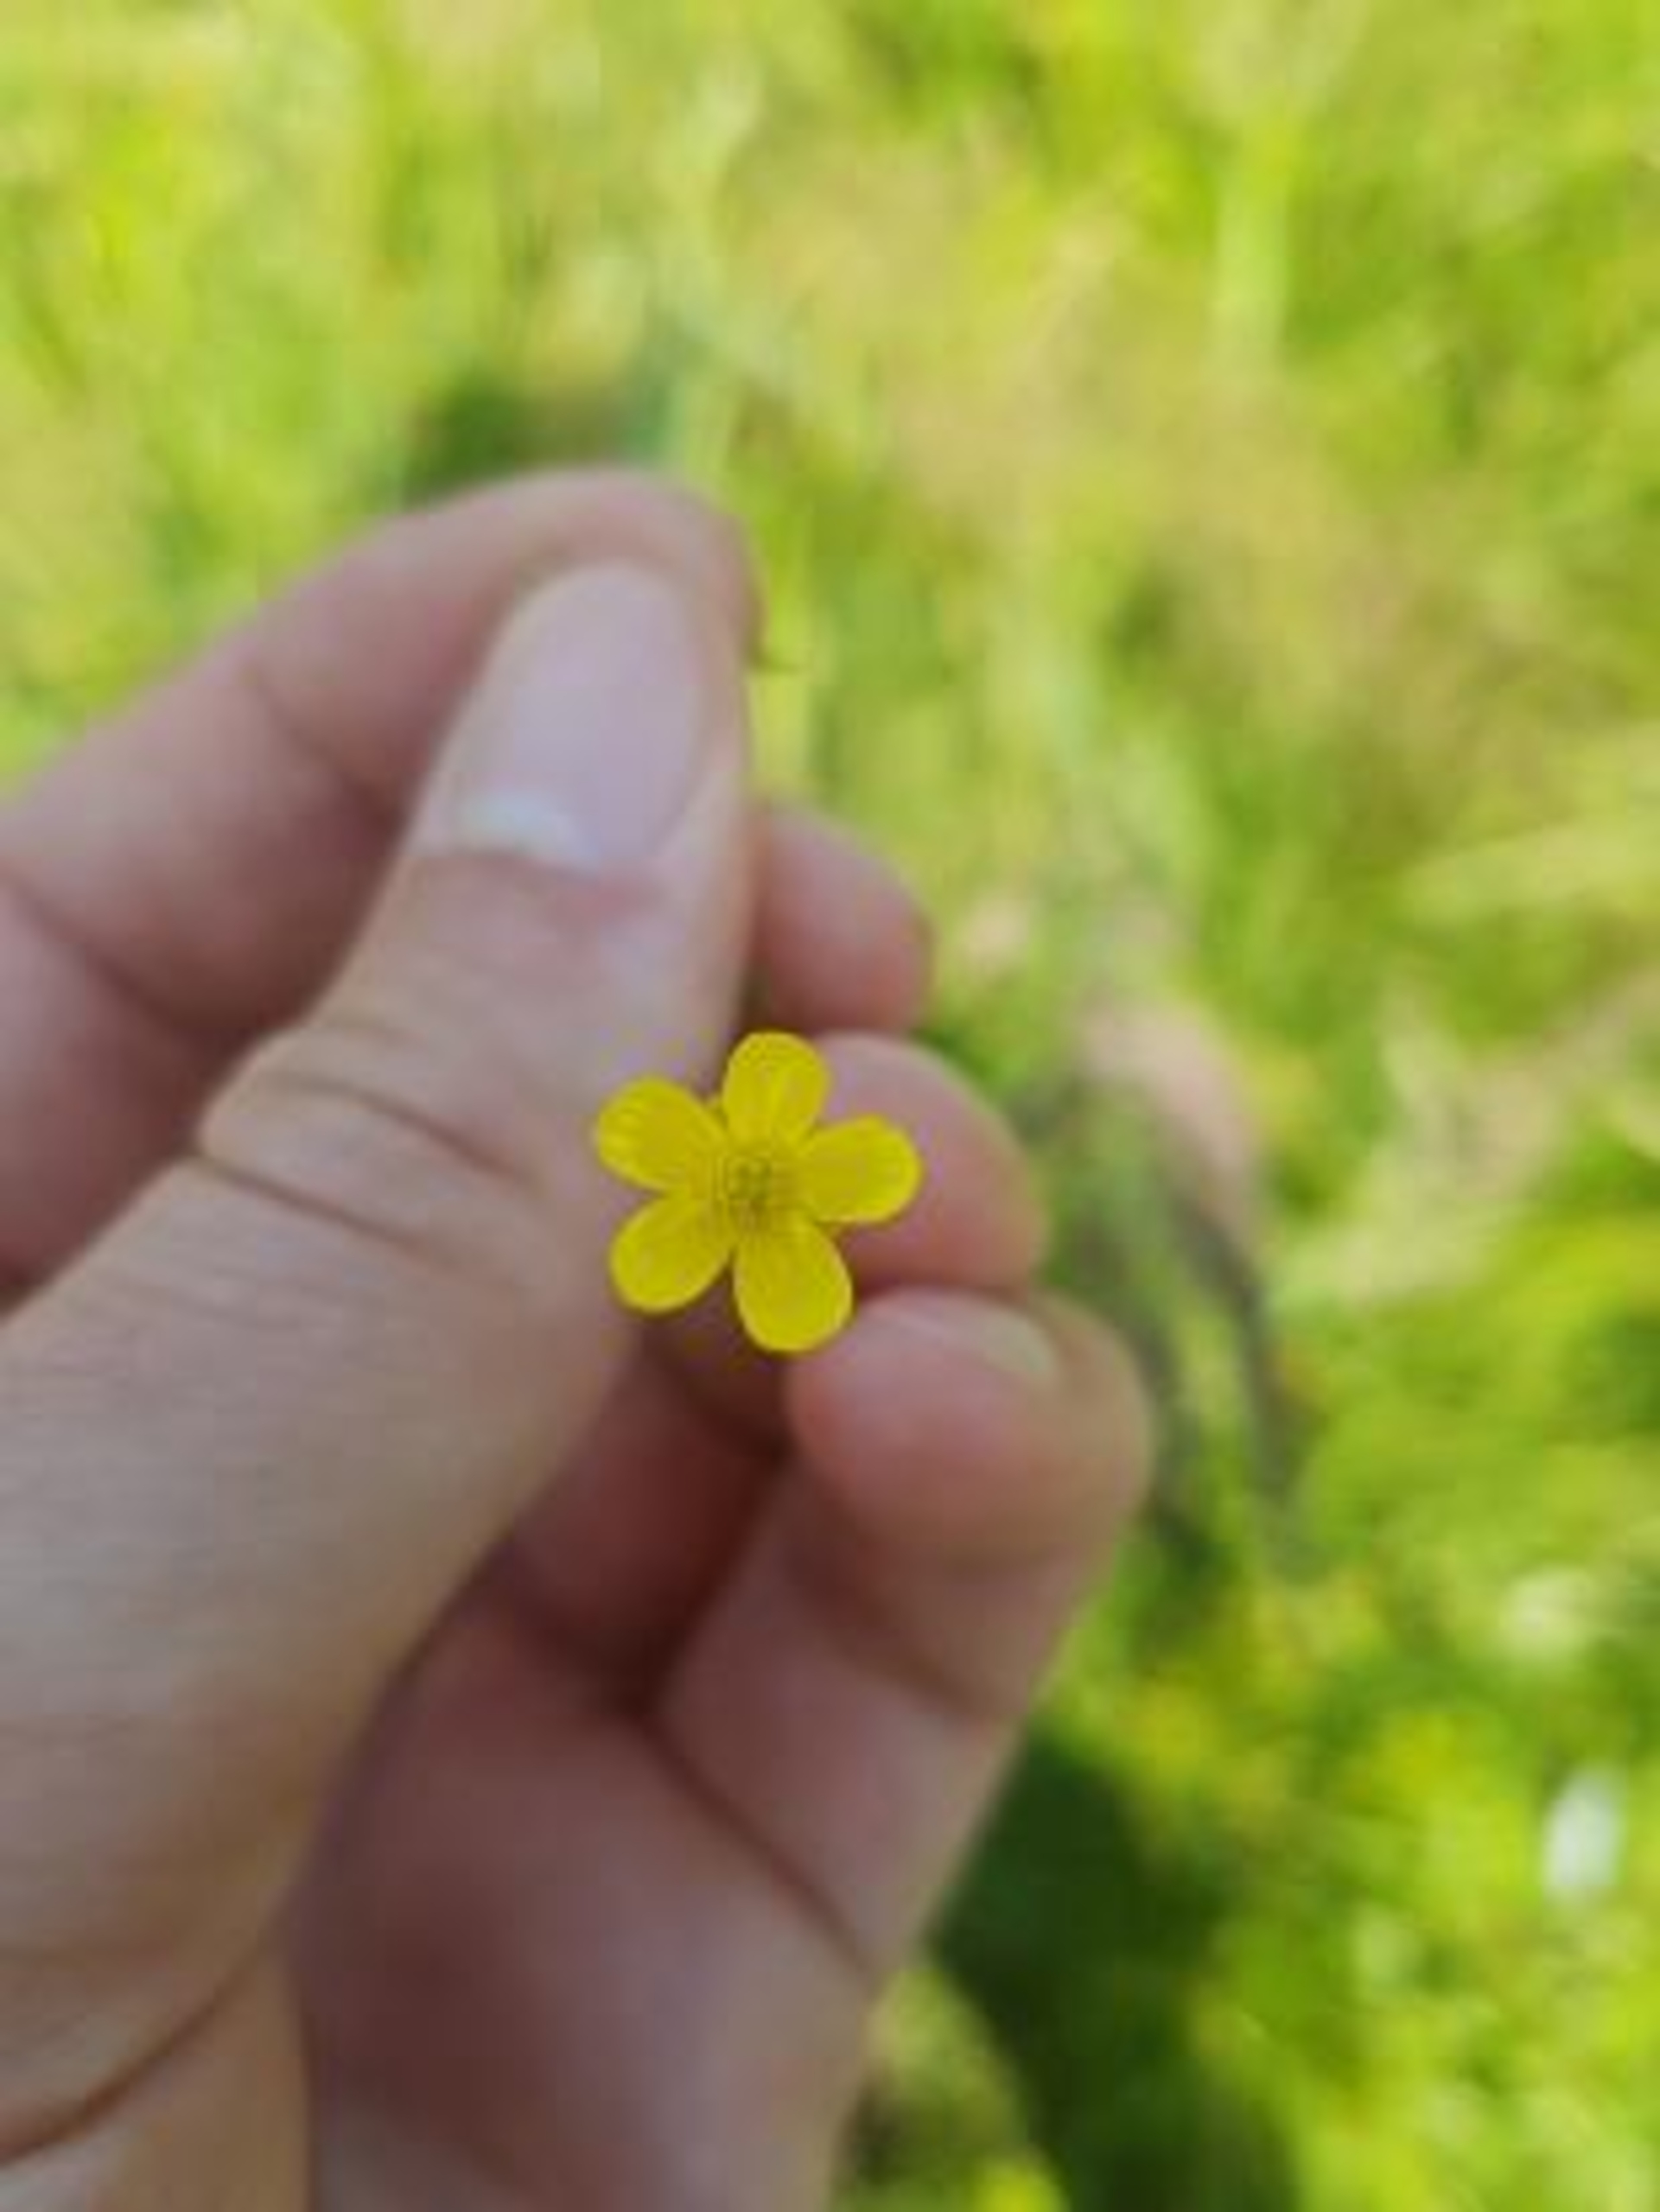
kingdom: Plantae
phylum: Tracheophyta
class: Magnoliopsida
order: Ranunculales
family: Ranunculaceae
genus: Ranunculus
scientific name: Ranunculus flammula
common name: Kær-ranunkel
